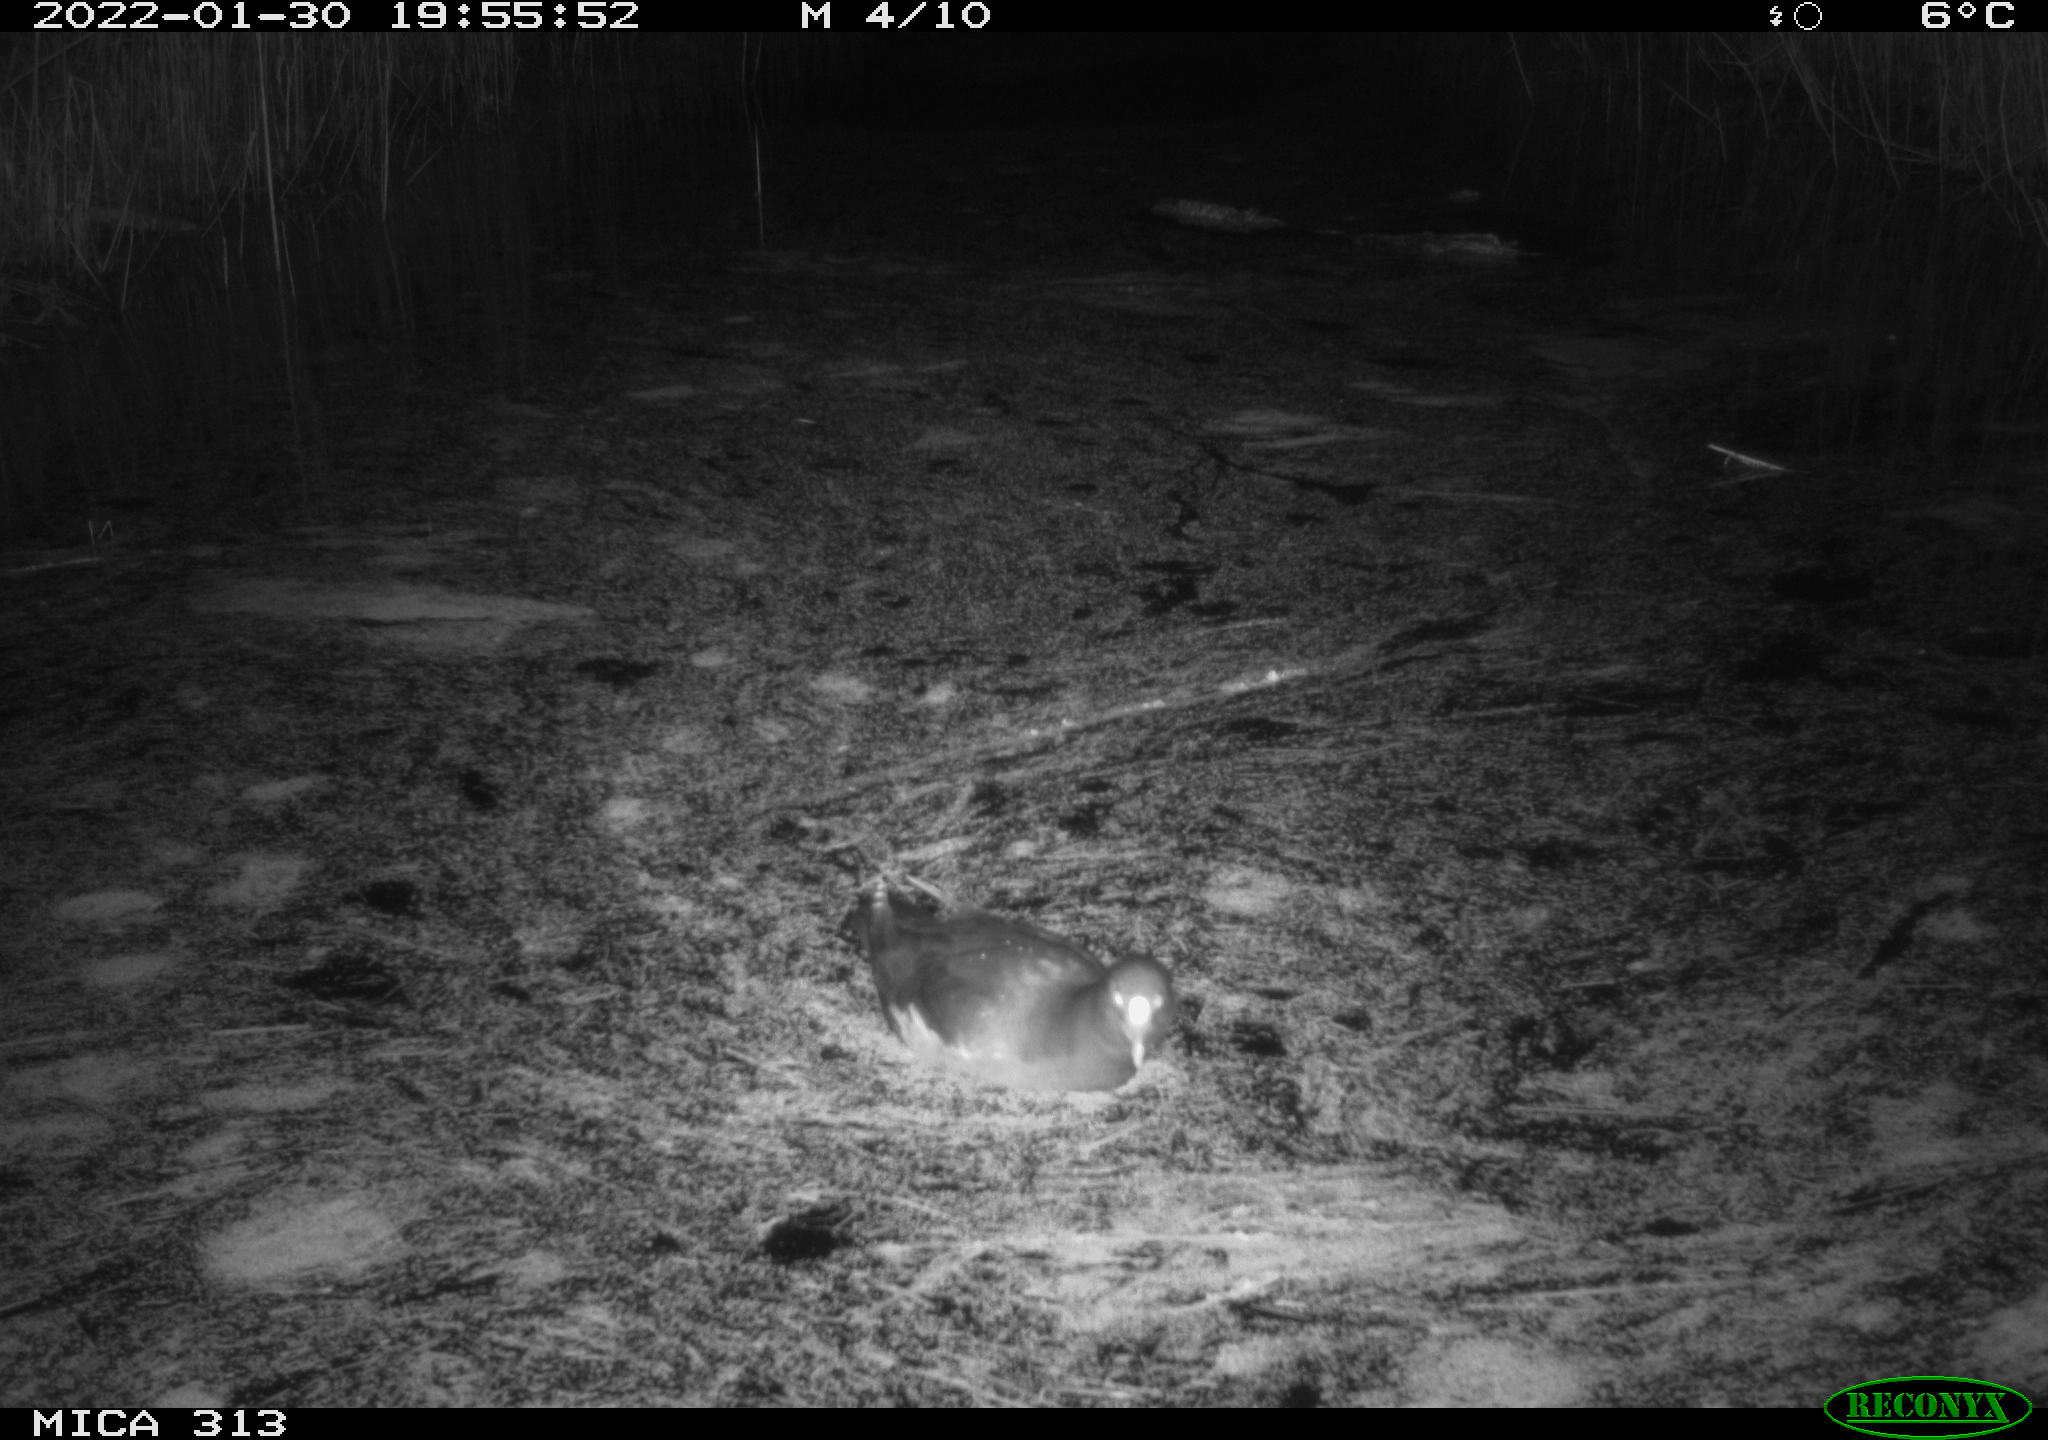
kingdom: Animalia
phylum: Chordata
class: Aves
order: Gruiformes
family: Rallidae
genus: Gallinula
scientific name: Gallinula chloropus
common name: Common moorhen
